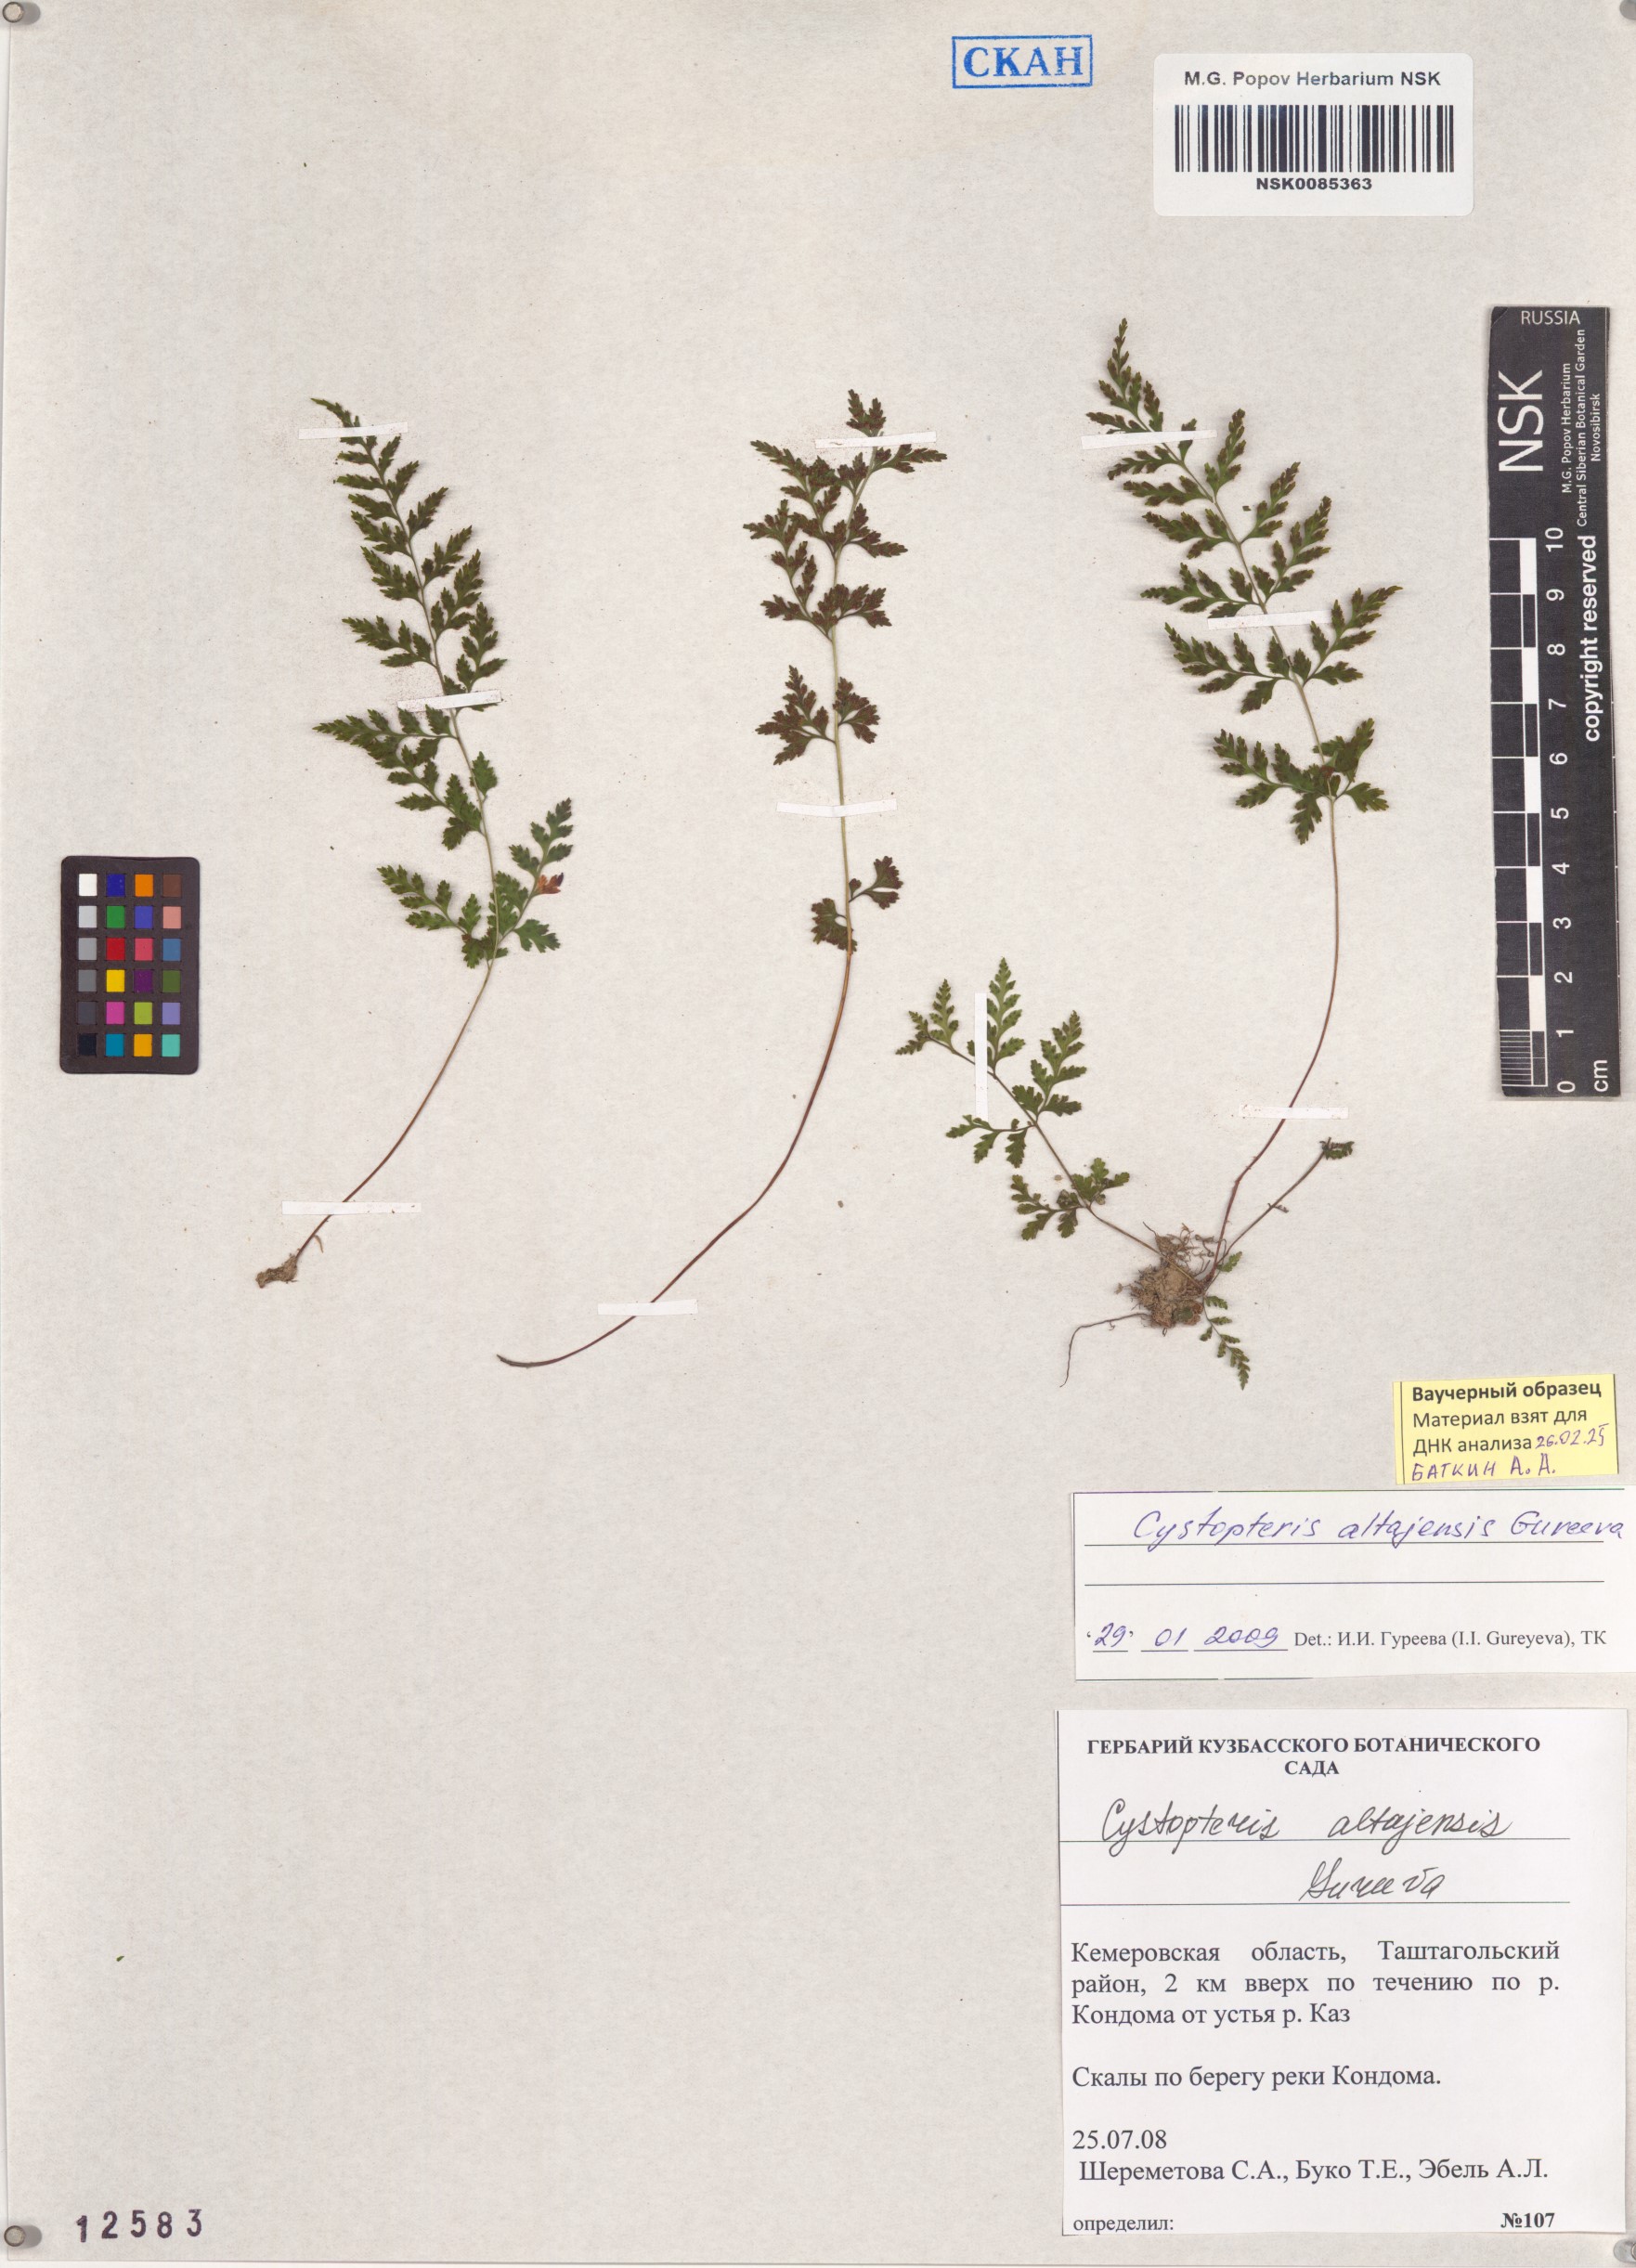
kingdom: Plantae
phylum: Tracheophyta
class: Polypodiopsida
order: Polypodiales
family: Cystopteridaceae
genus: Cystopteris
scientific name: Cystopteris diaphana
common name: Greenish bladder-fern
